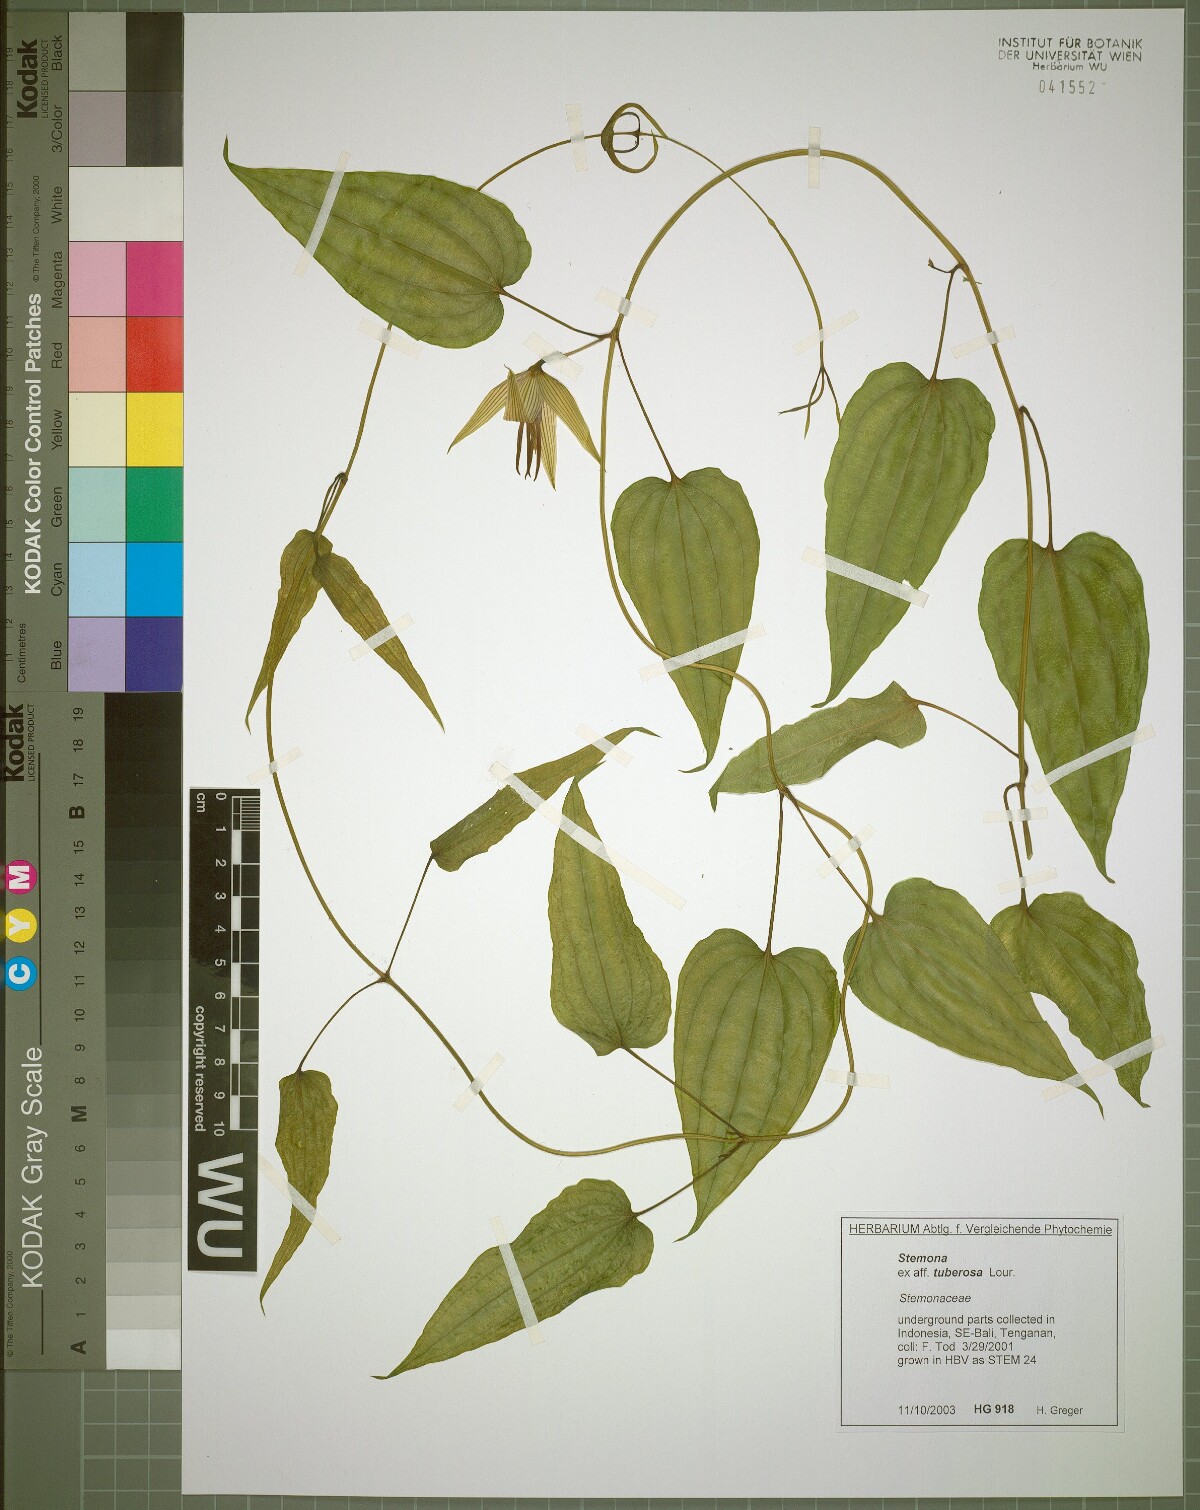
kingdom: Plantae
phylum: Tracheophyta
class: Liliopsida
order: Pandanales
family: Stemonaceae
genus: Stemona
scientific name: Stemona tuberosa
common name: Stemona
